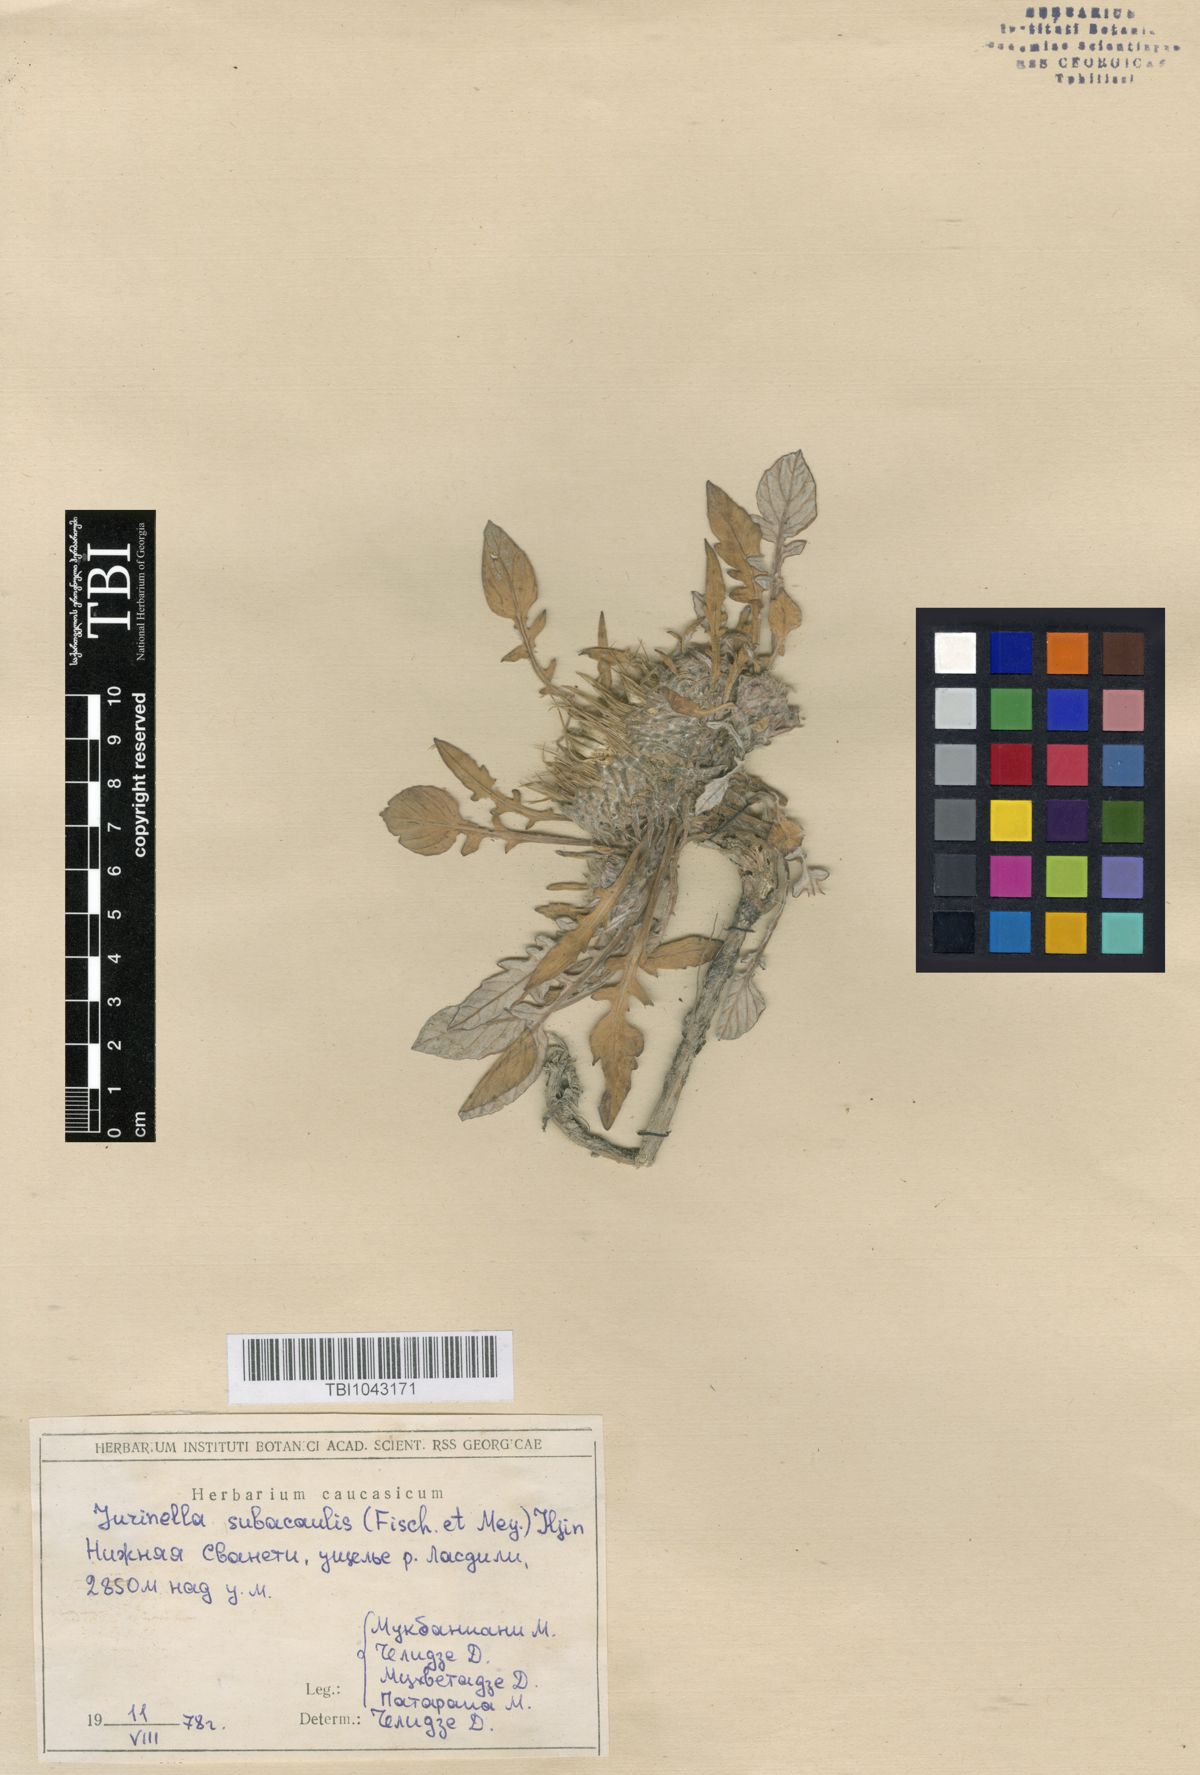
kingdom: Plantae
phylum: Tracheophyta
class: Magnoliopsida
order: Asterales
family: Asteraceae
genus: Jurinea
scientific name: Jurinea moschus
